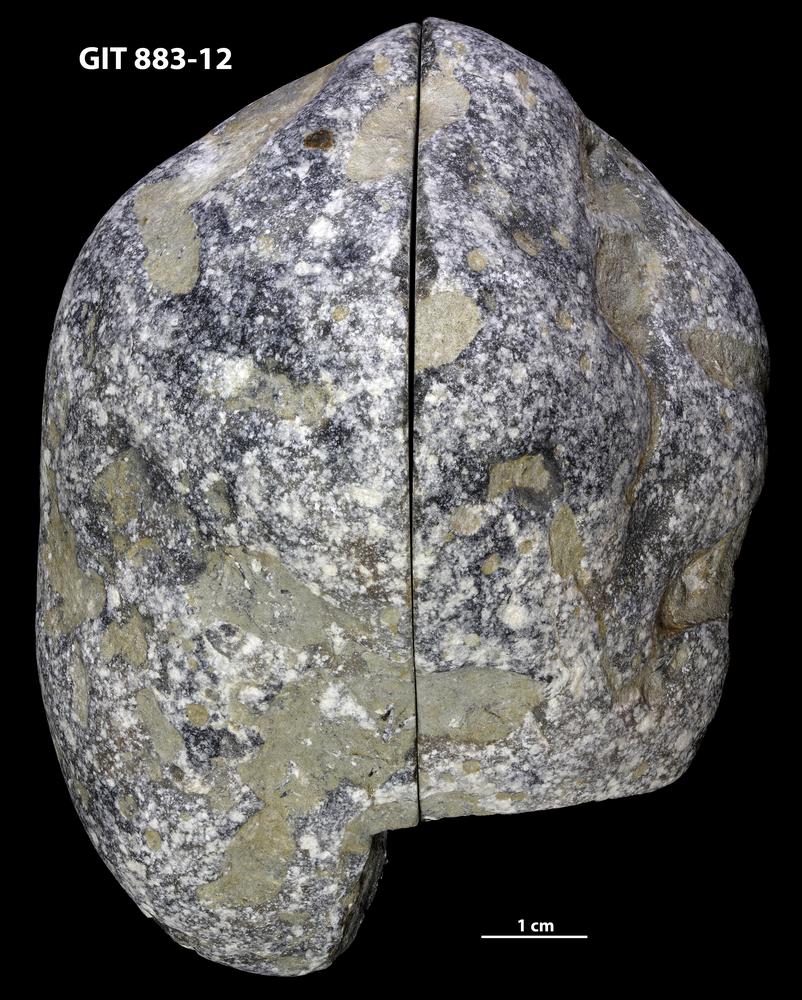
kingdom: Animalia
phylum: Porifera
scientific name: Porifera
